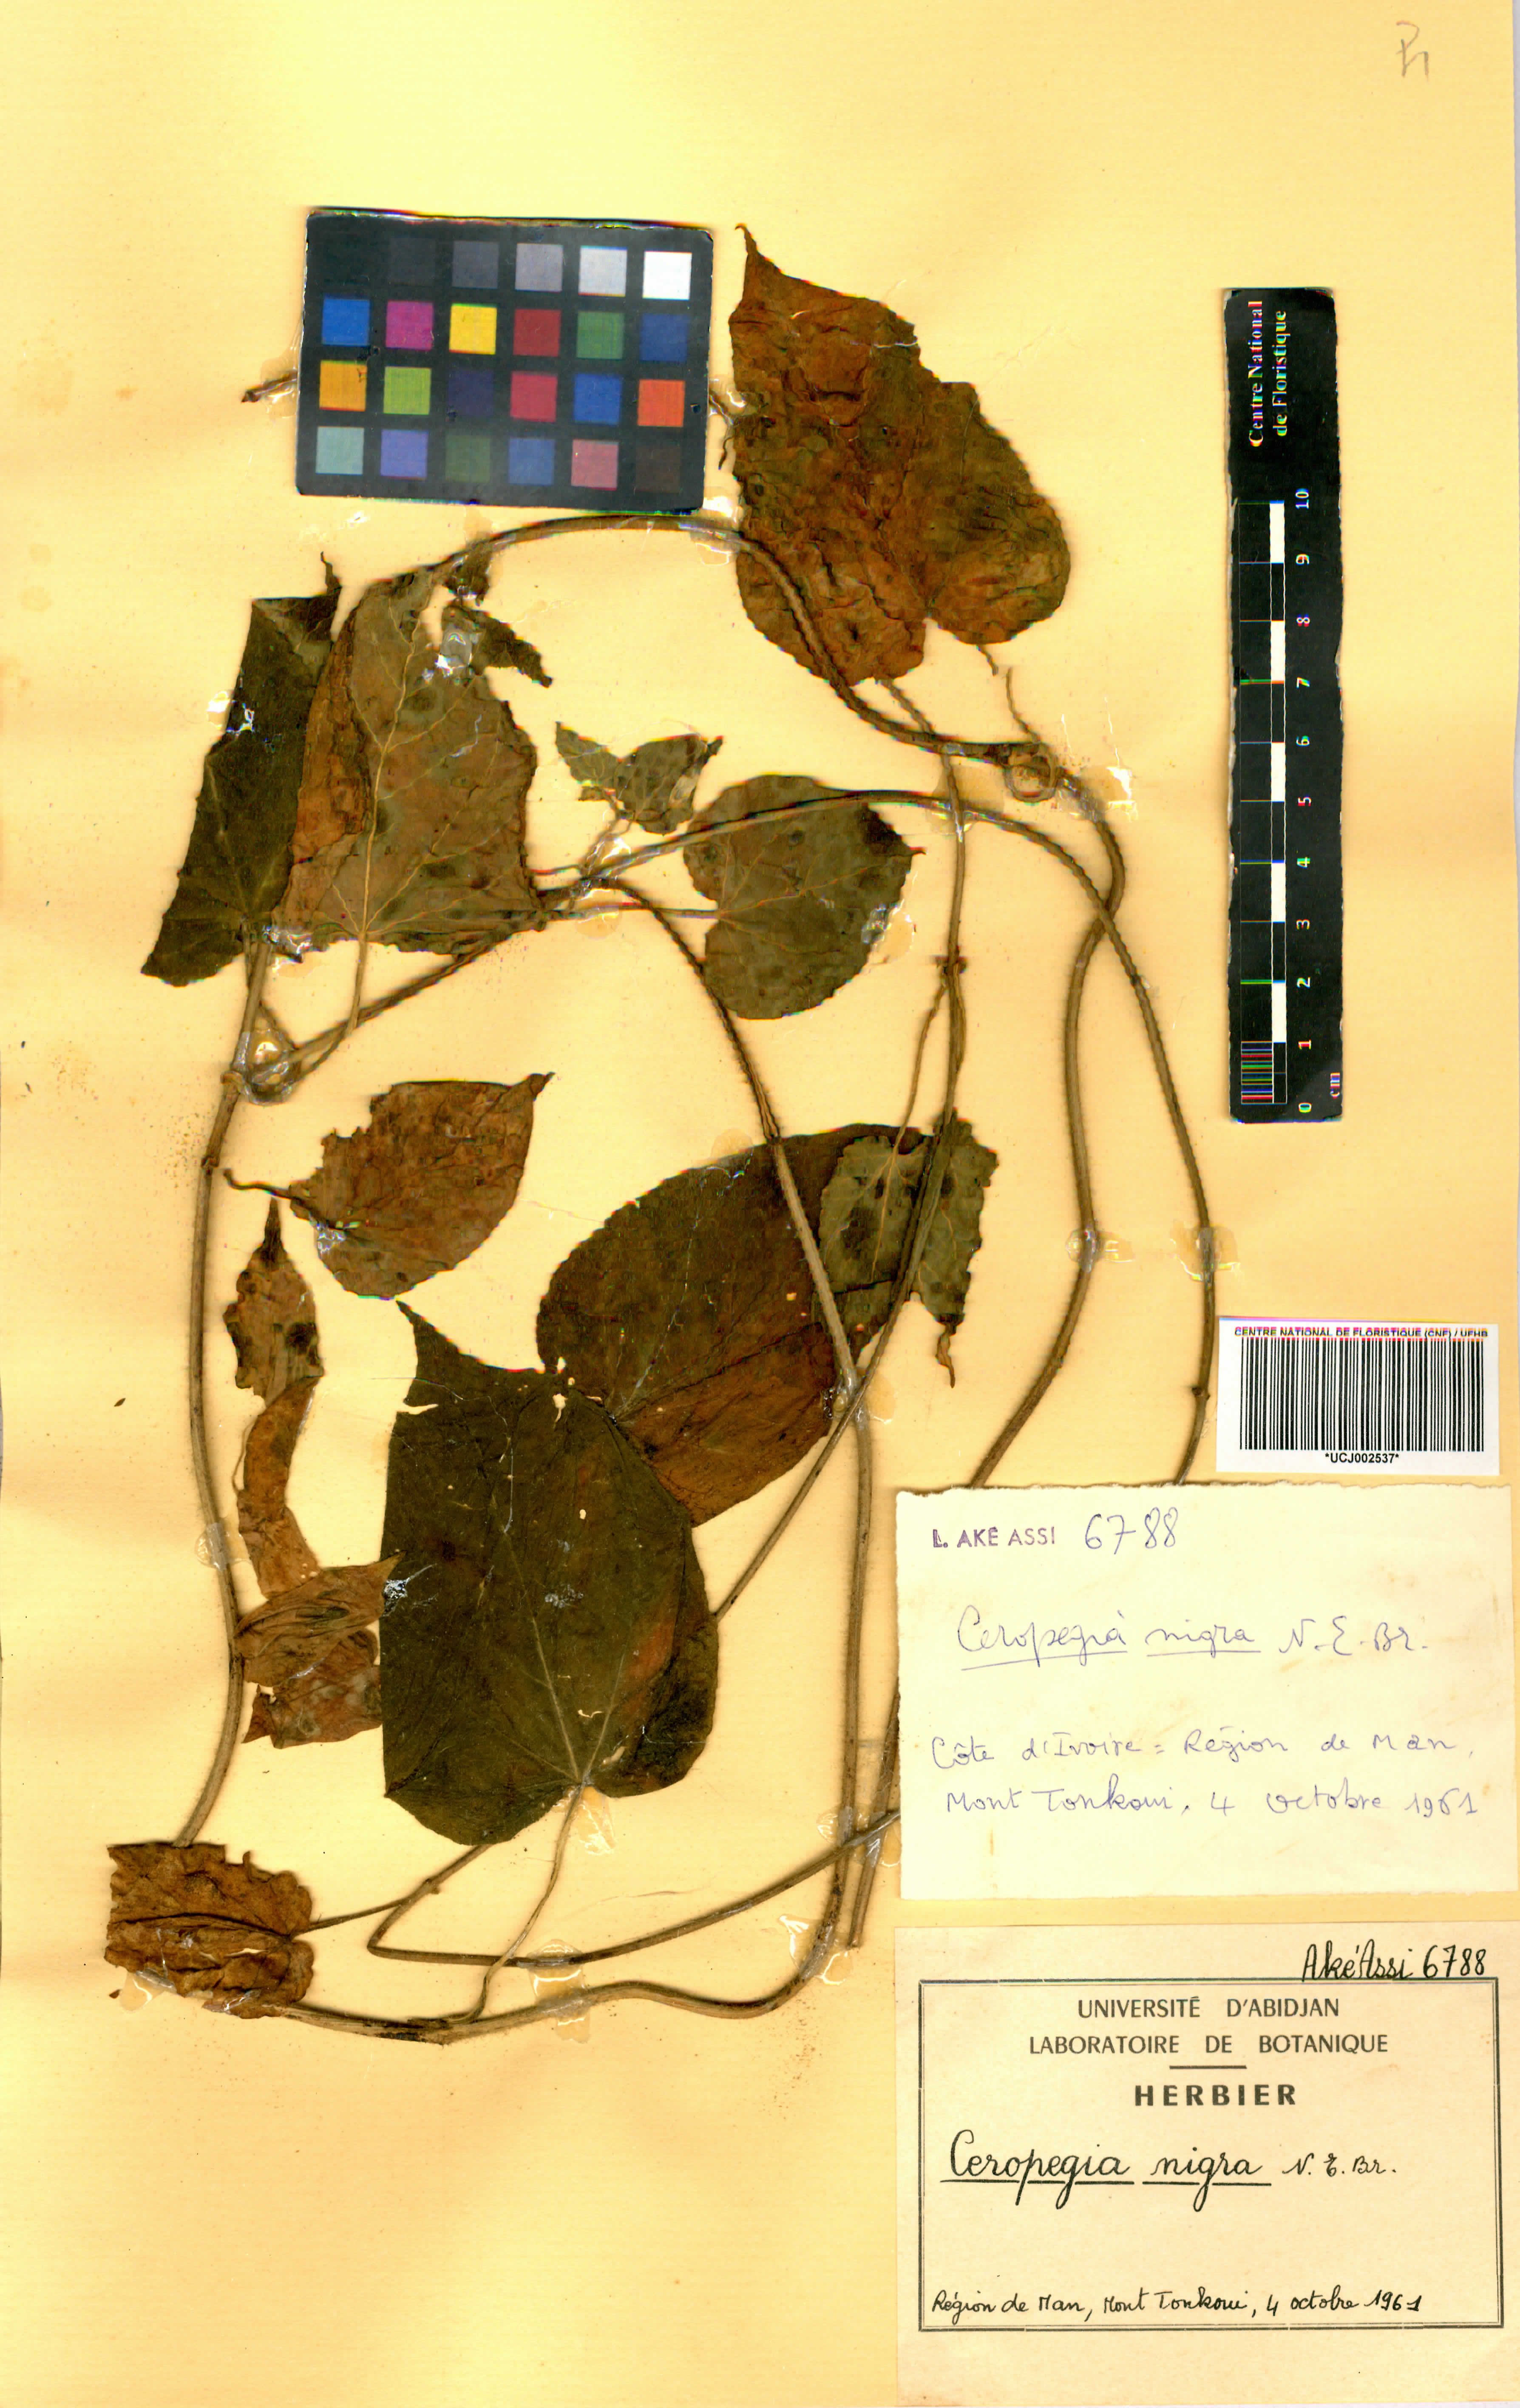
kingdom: Plantae
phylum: Tracheophyta
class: Magnoliopsida
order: Gentianales
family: Apocynaceae
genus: Ceropegia
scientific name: Ceropegia nigra
